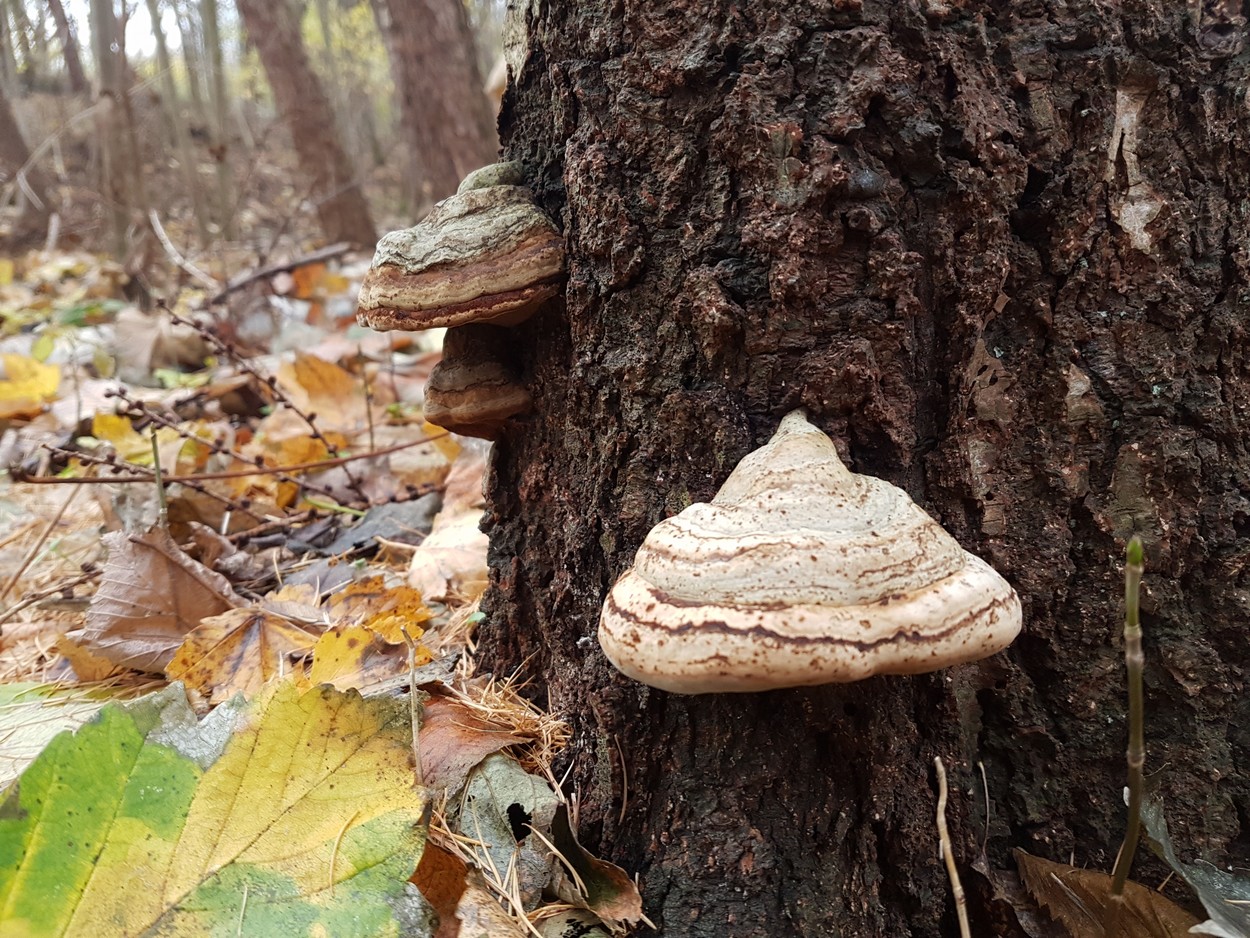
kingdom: Fungi
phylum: Basidiomycota
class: Agaricomycetes
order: Polyporales
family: Polyporaceae
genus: Fomes
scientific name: Fomes fomentarius
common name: tøndersvamp
